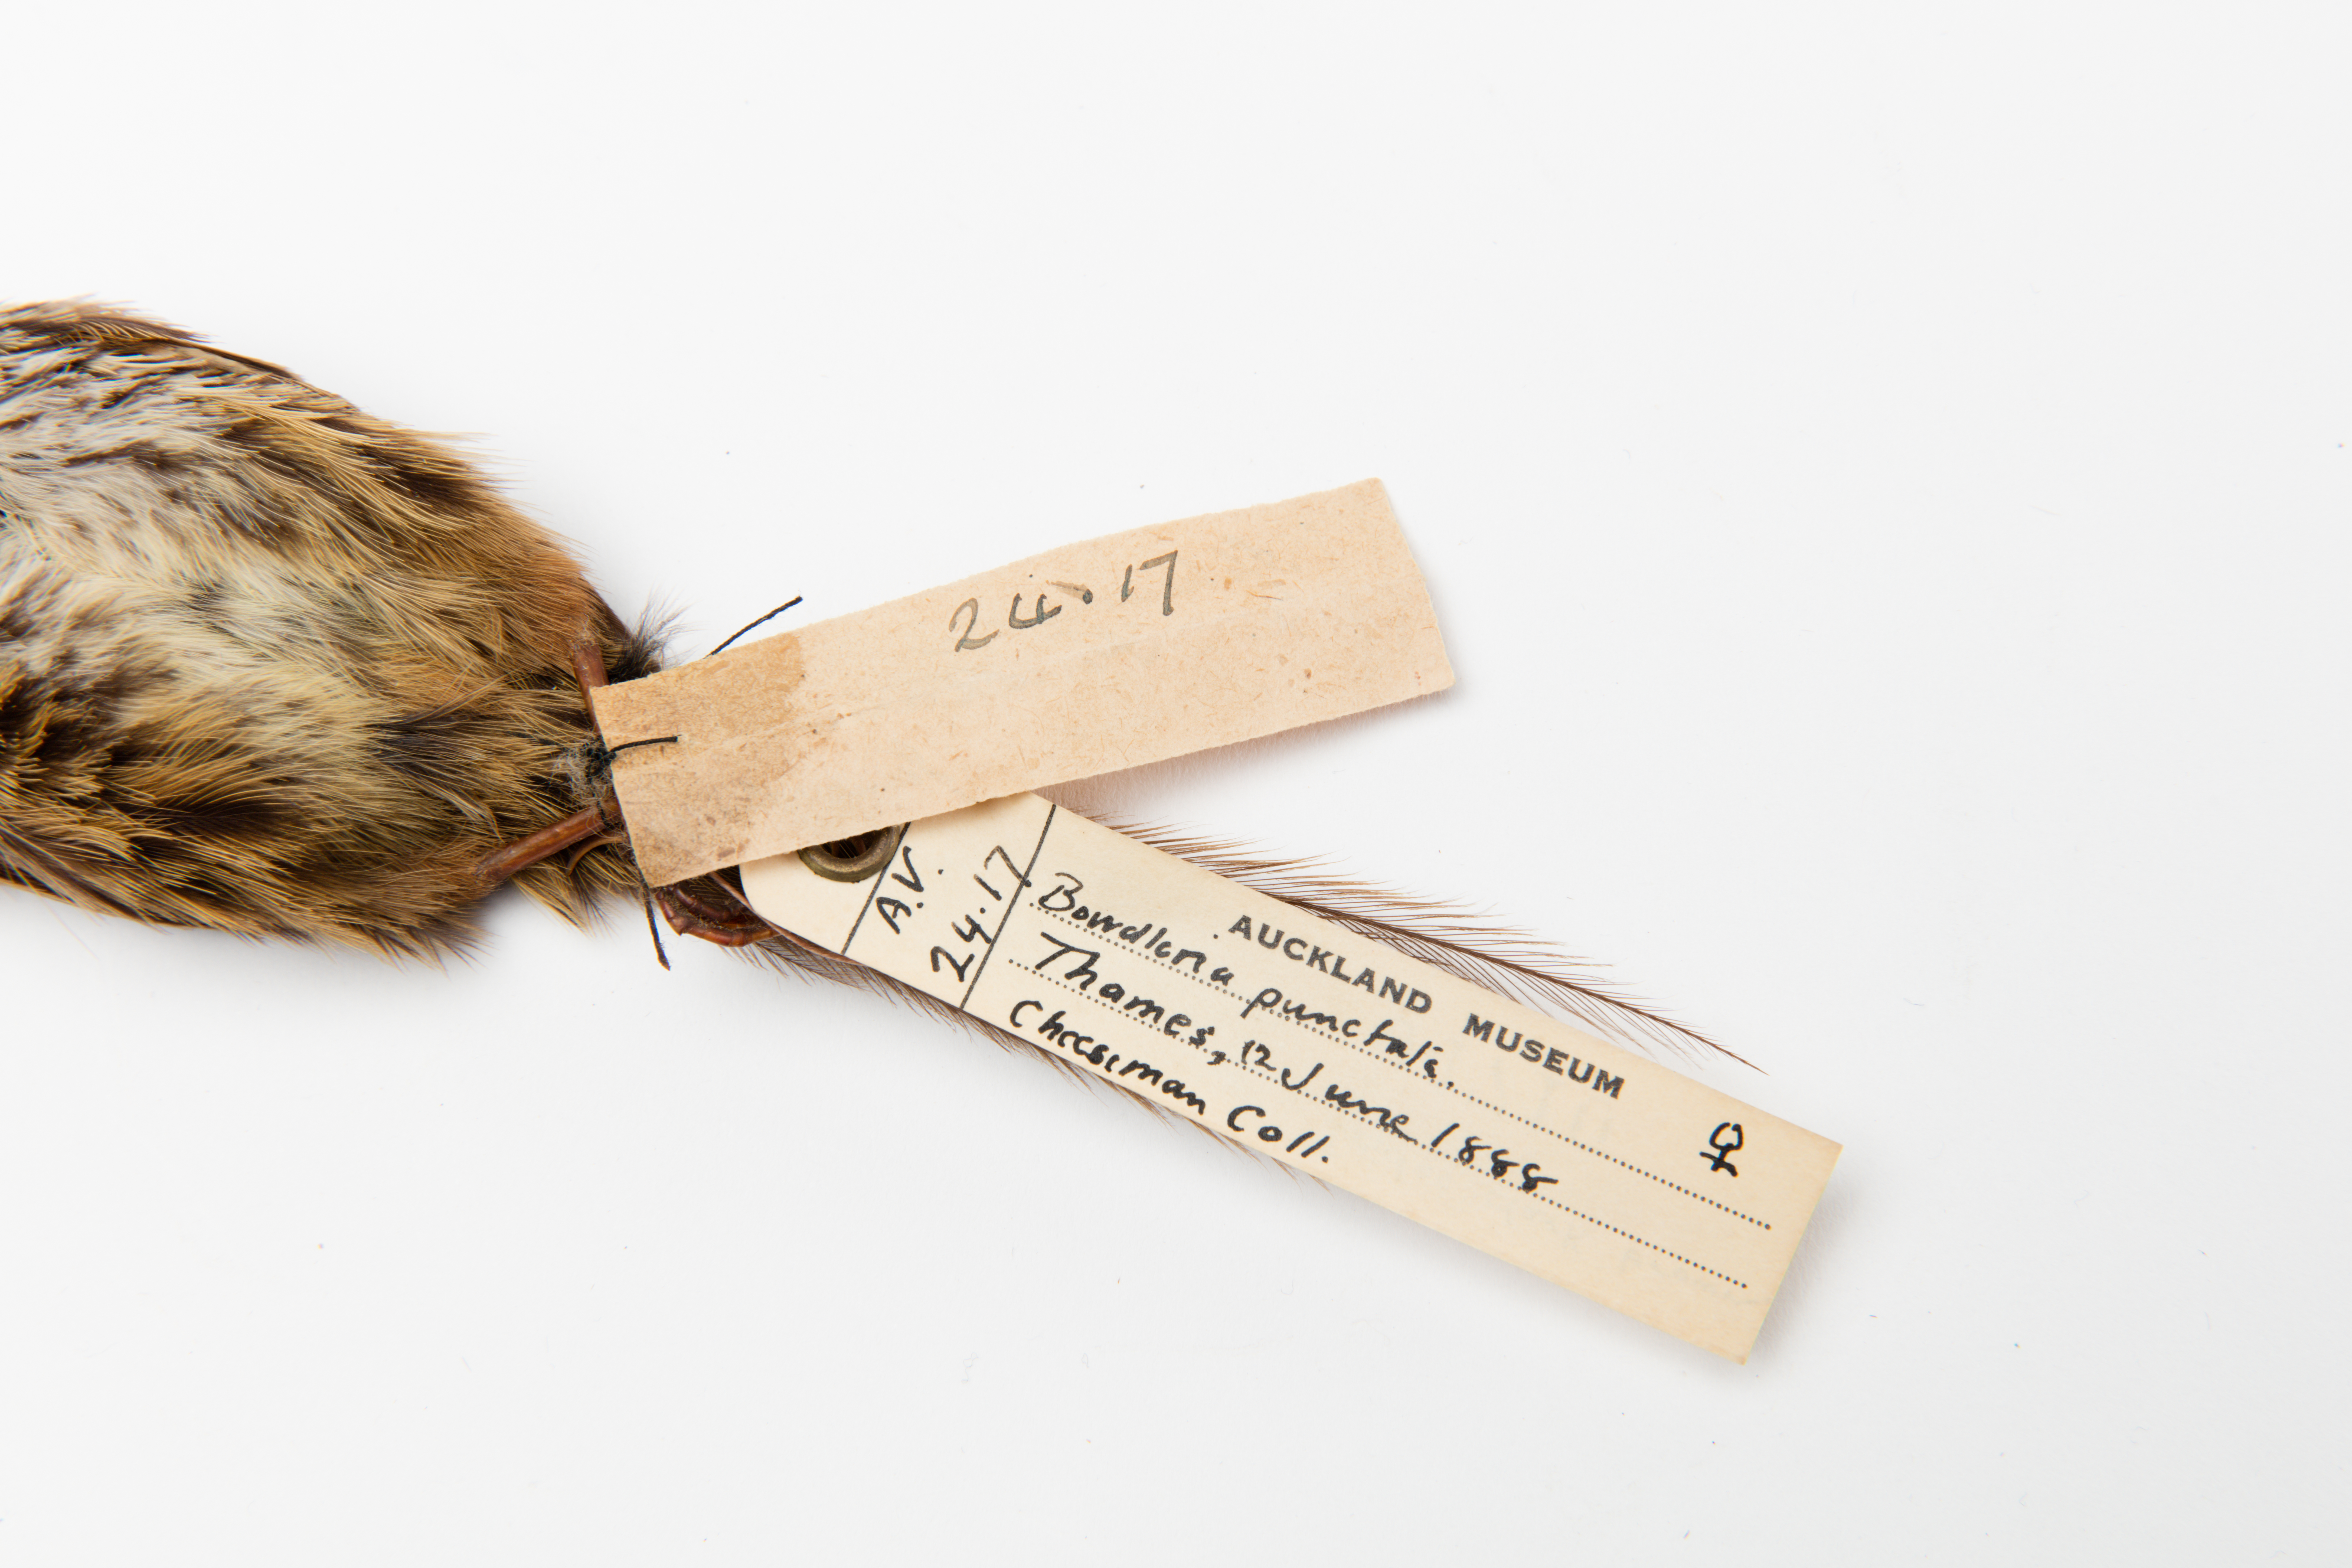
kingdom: Animalia
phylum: Chordata
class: Aves
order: Passeriformes
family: Locustellidae
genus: Megalurus
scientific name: Megalurus punctatus
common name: New zealand fernbird
